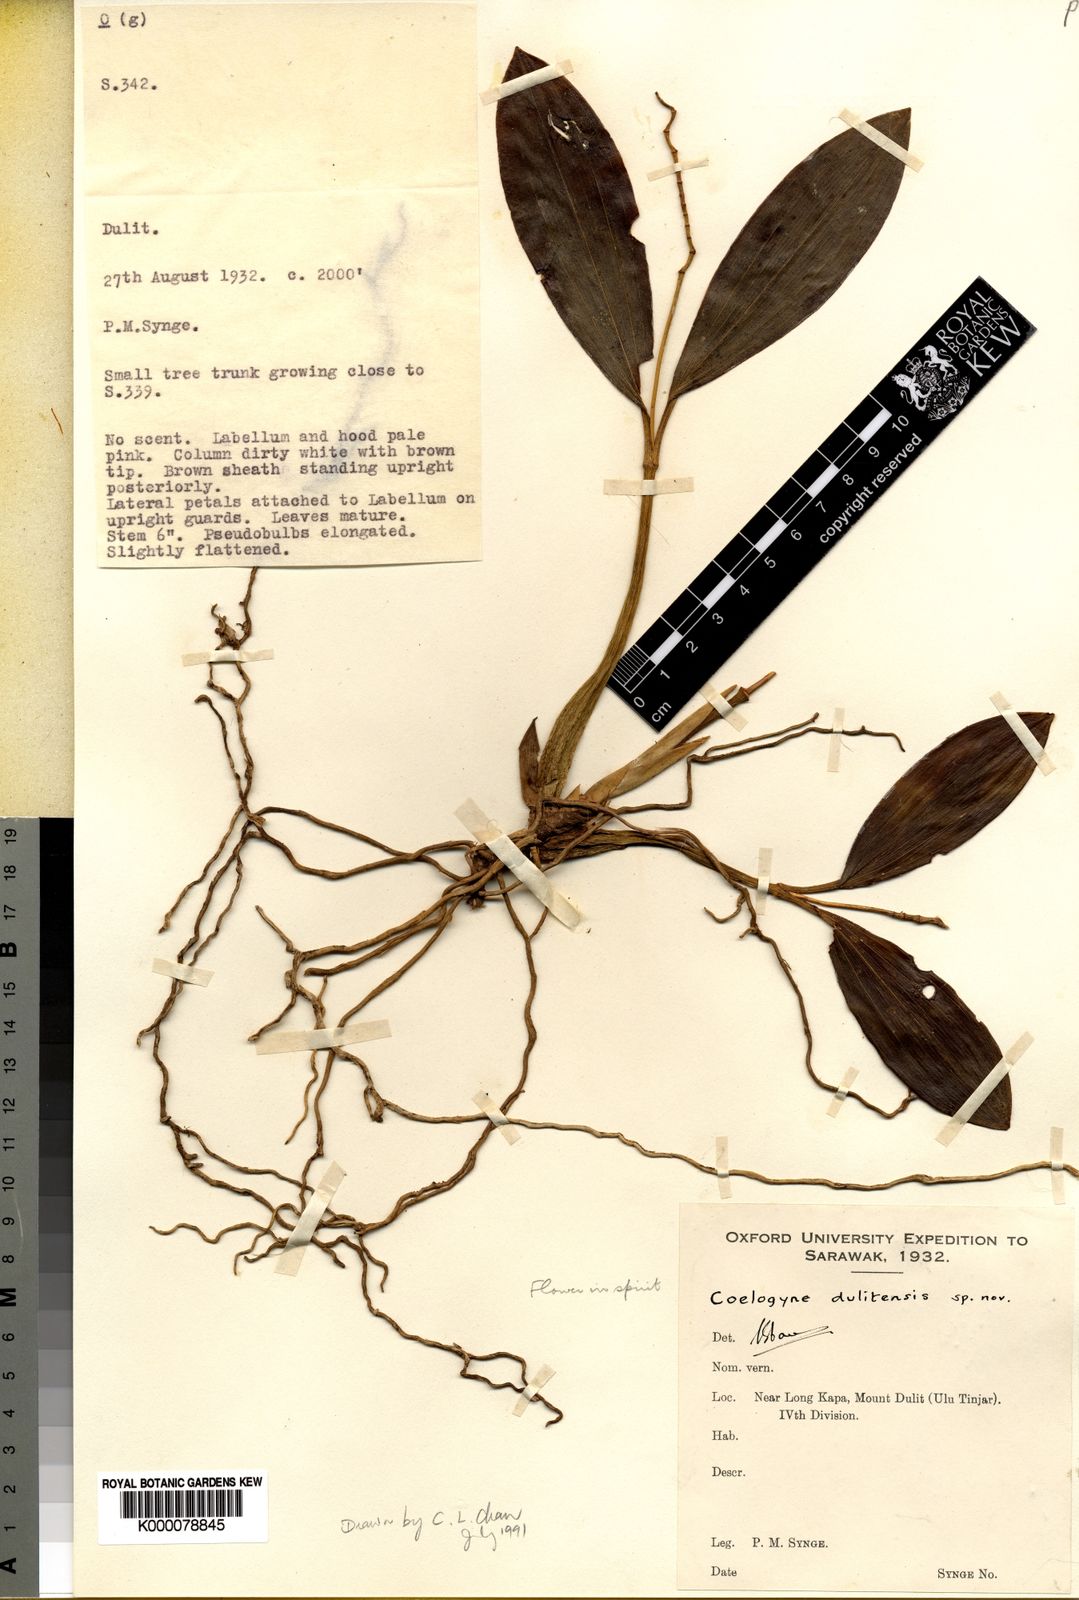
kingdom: Plantae
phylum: Tracheophyta
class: Liliopsida
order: Asparagales
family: Orchidaceae
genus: Coelogyne
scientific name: Coelogyne dulitensis
